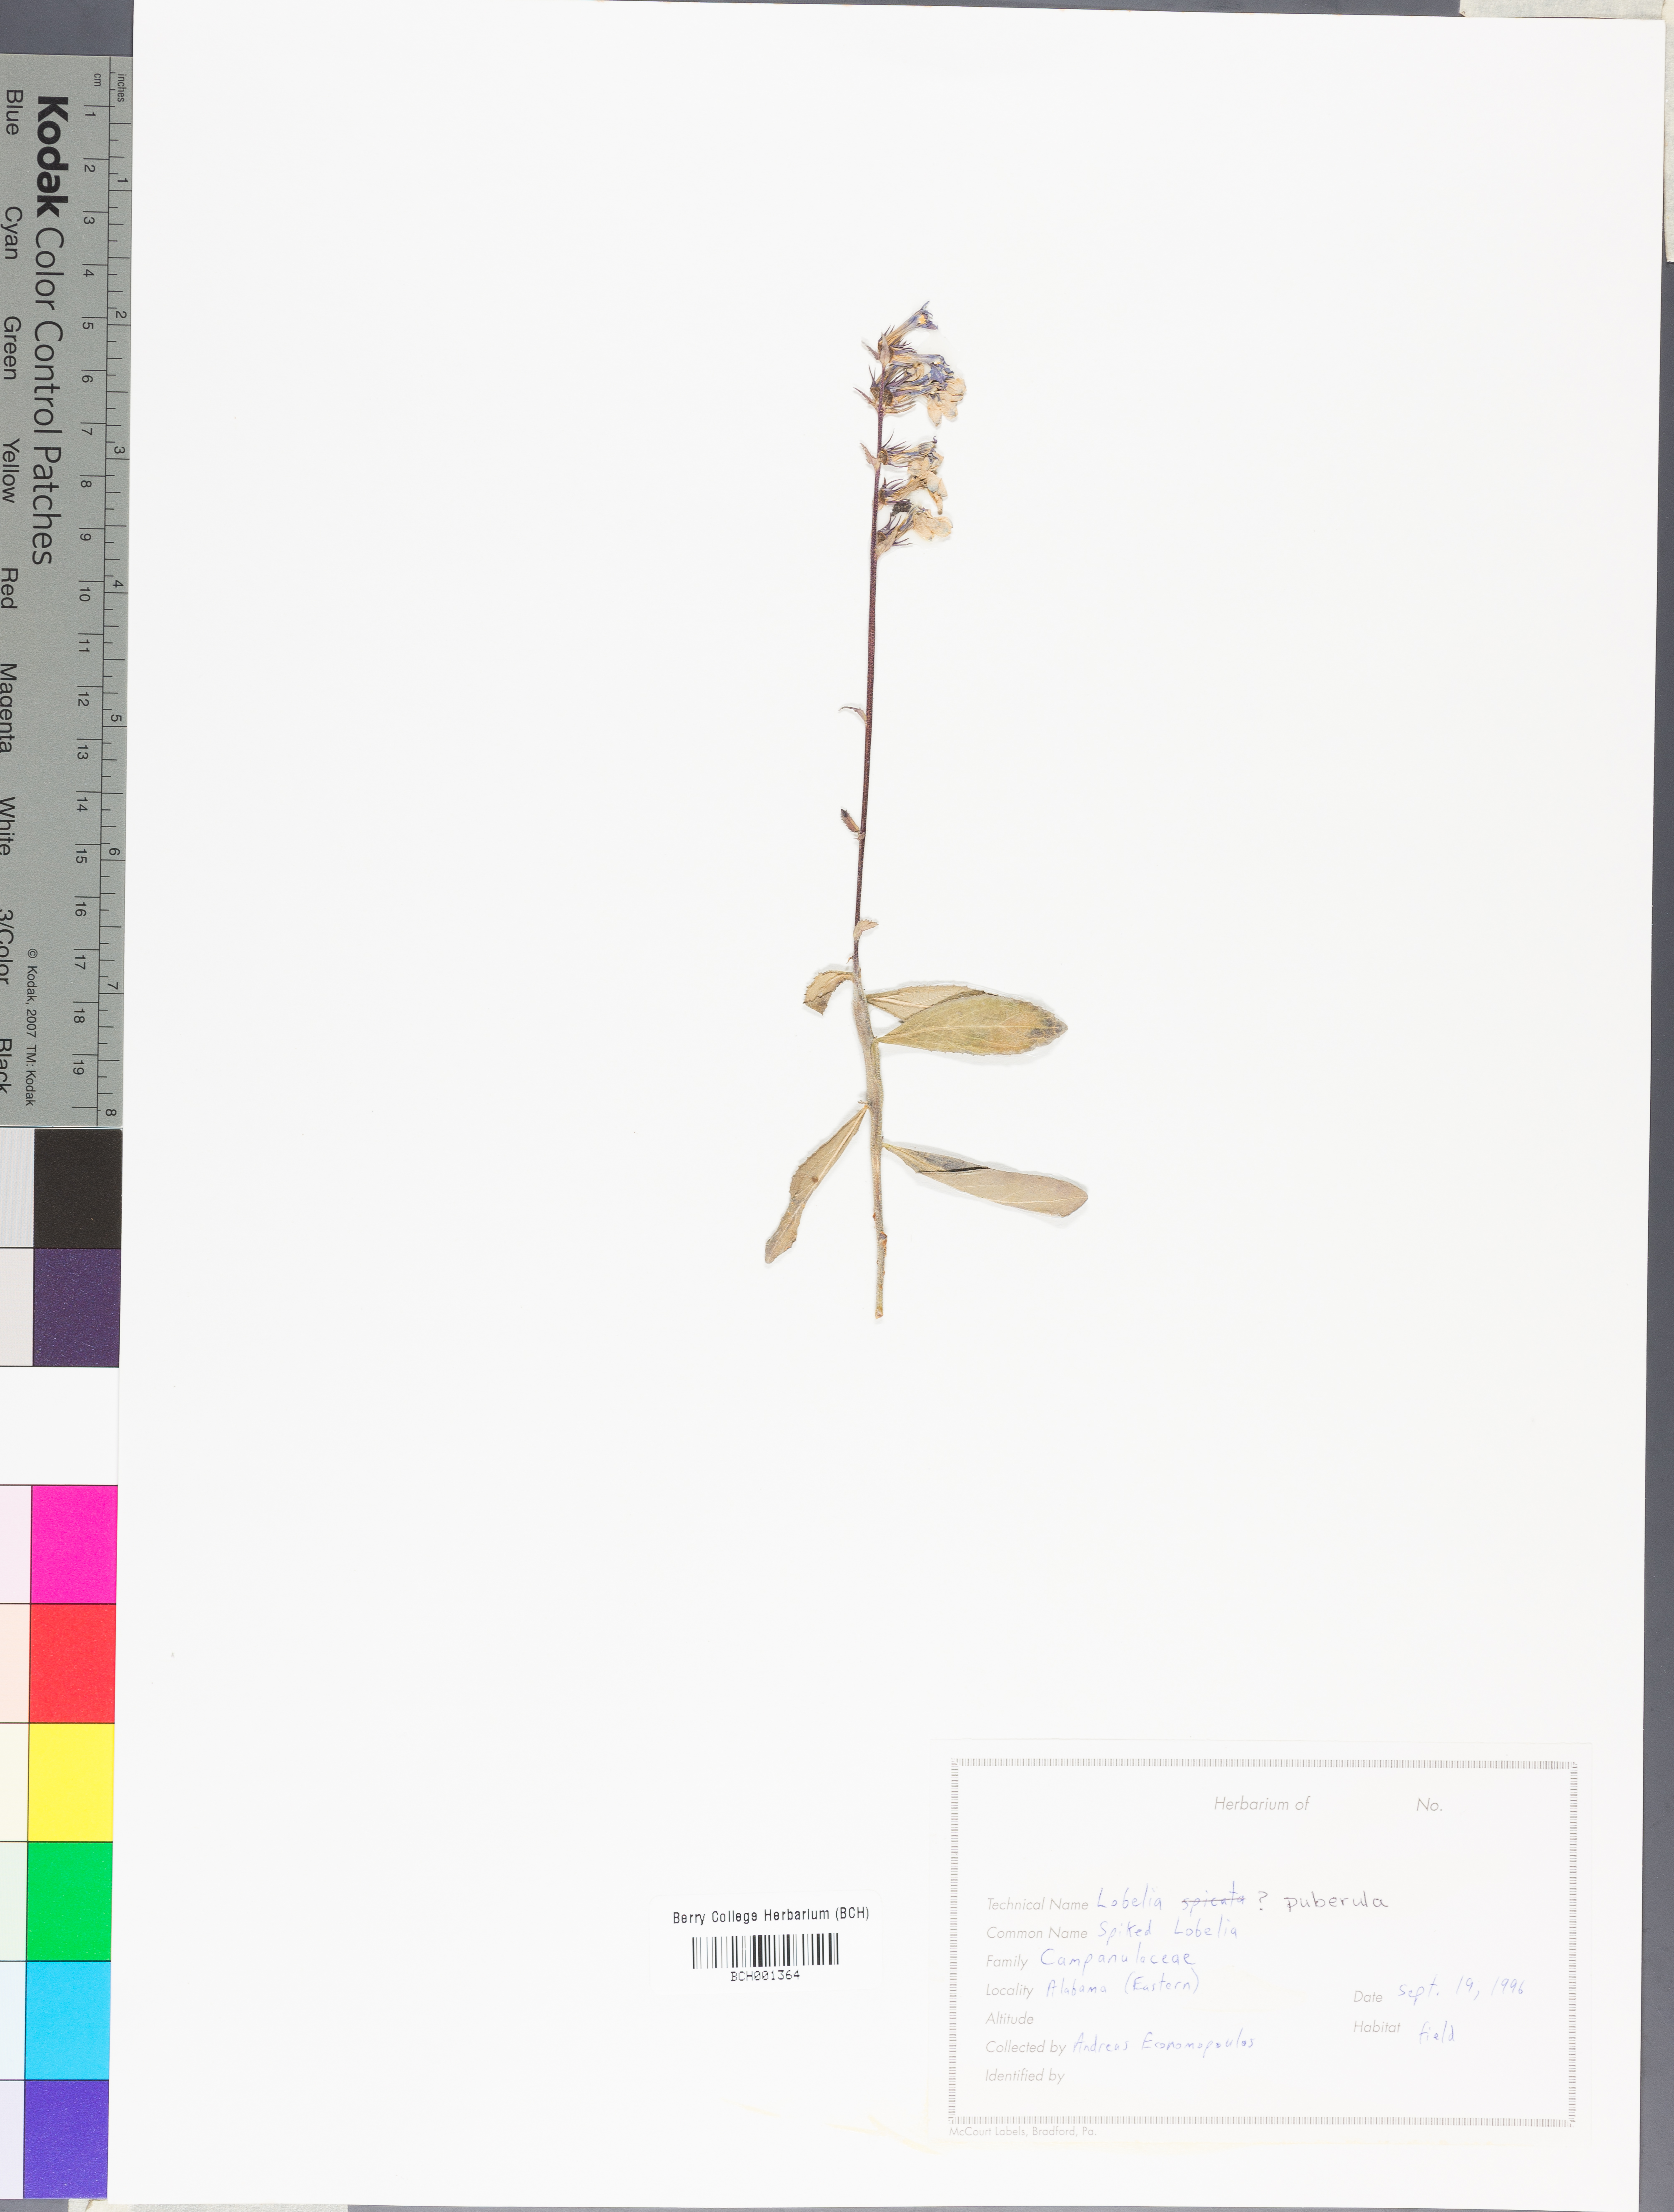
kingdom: Plantae
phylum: Tracheophyta
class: Magnoliopsida
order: Asterales
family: Campanulaceae
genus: Lobelia
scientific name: Lobelia puberula
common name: Purple dewdrop
